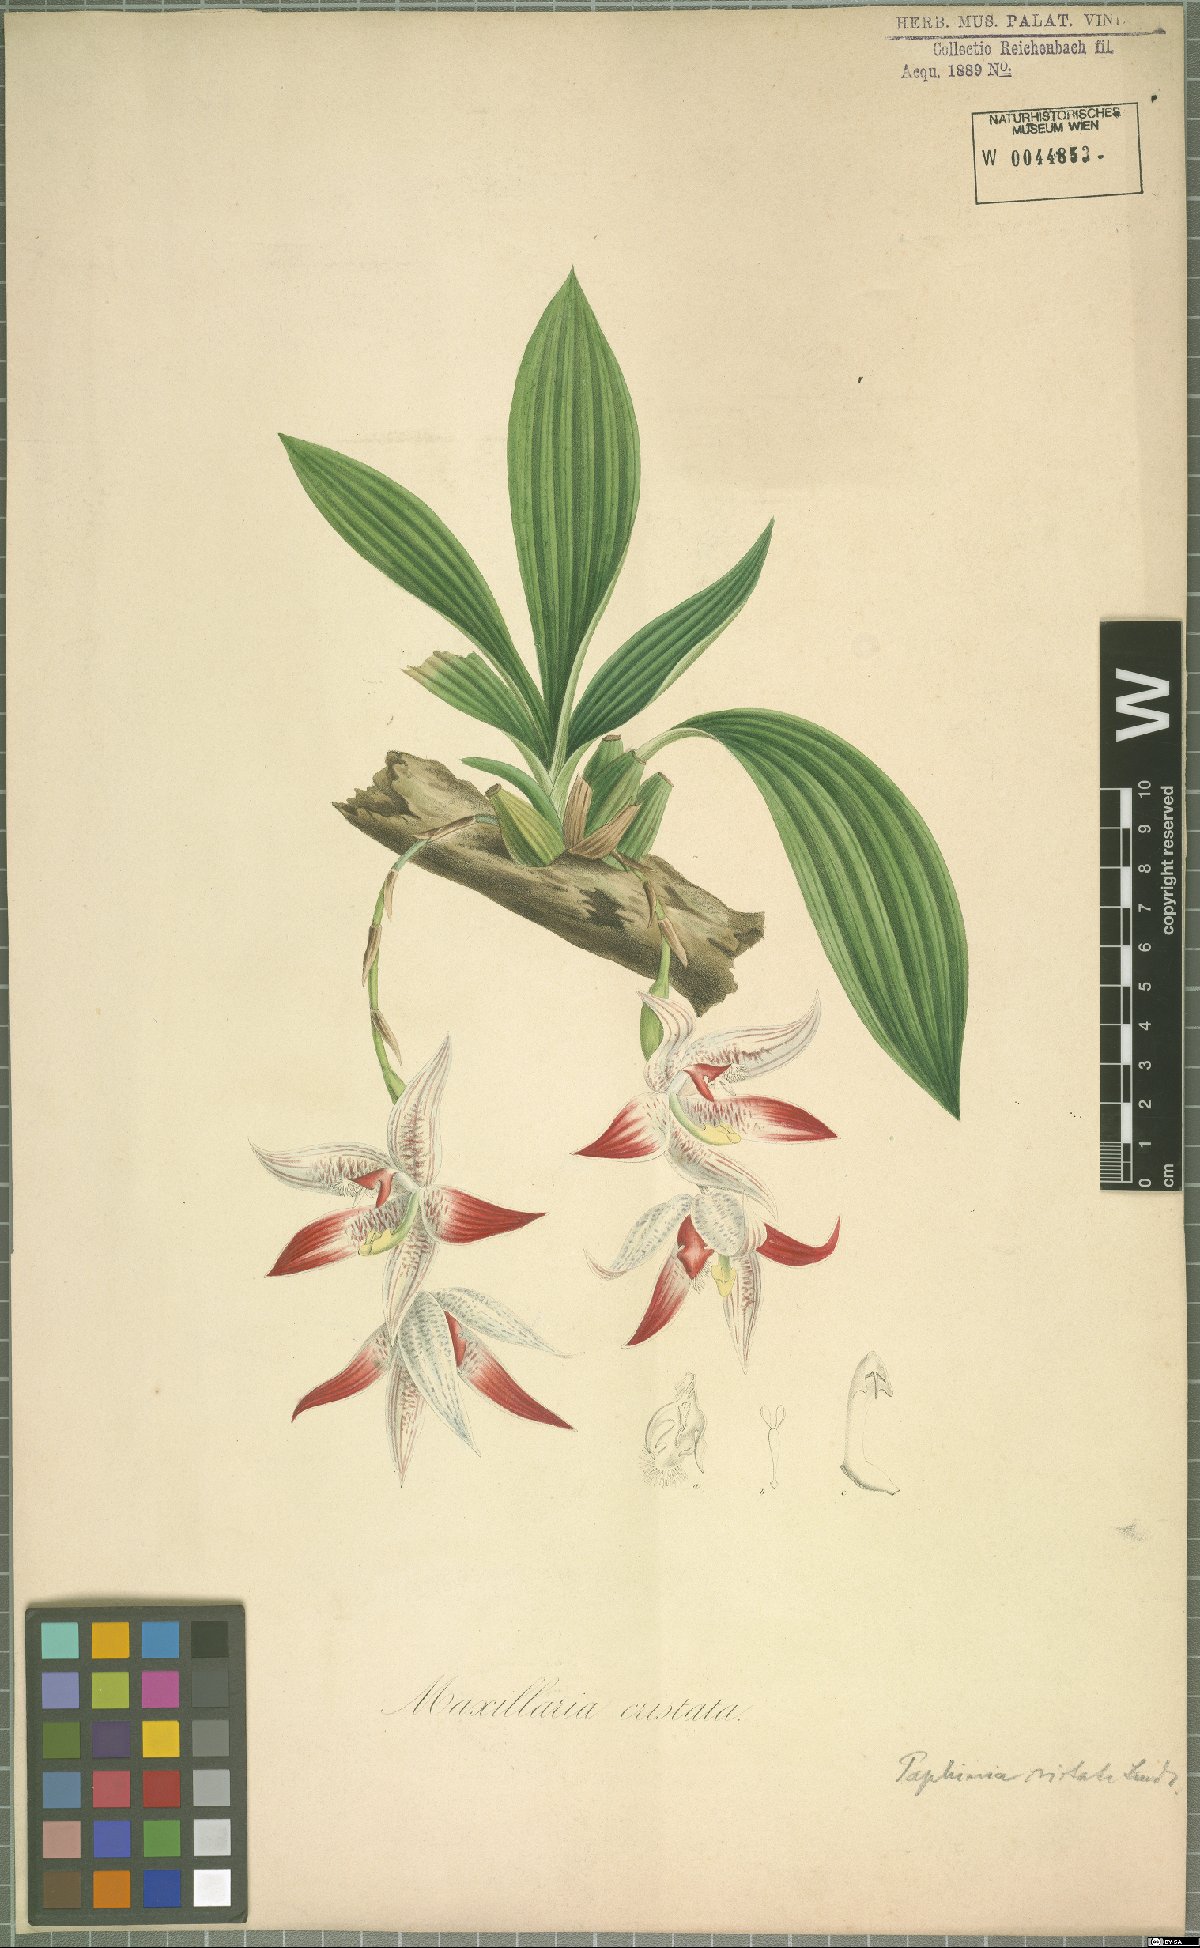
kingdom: Plantae
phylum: Tracheophyta
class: Liliopsida
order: Asparagales
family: Orchidaceae
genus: Paphinia
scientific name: Paphinia cristata
